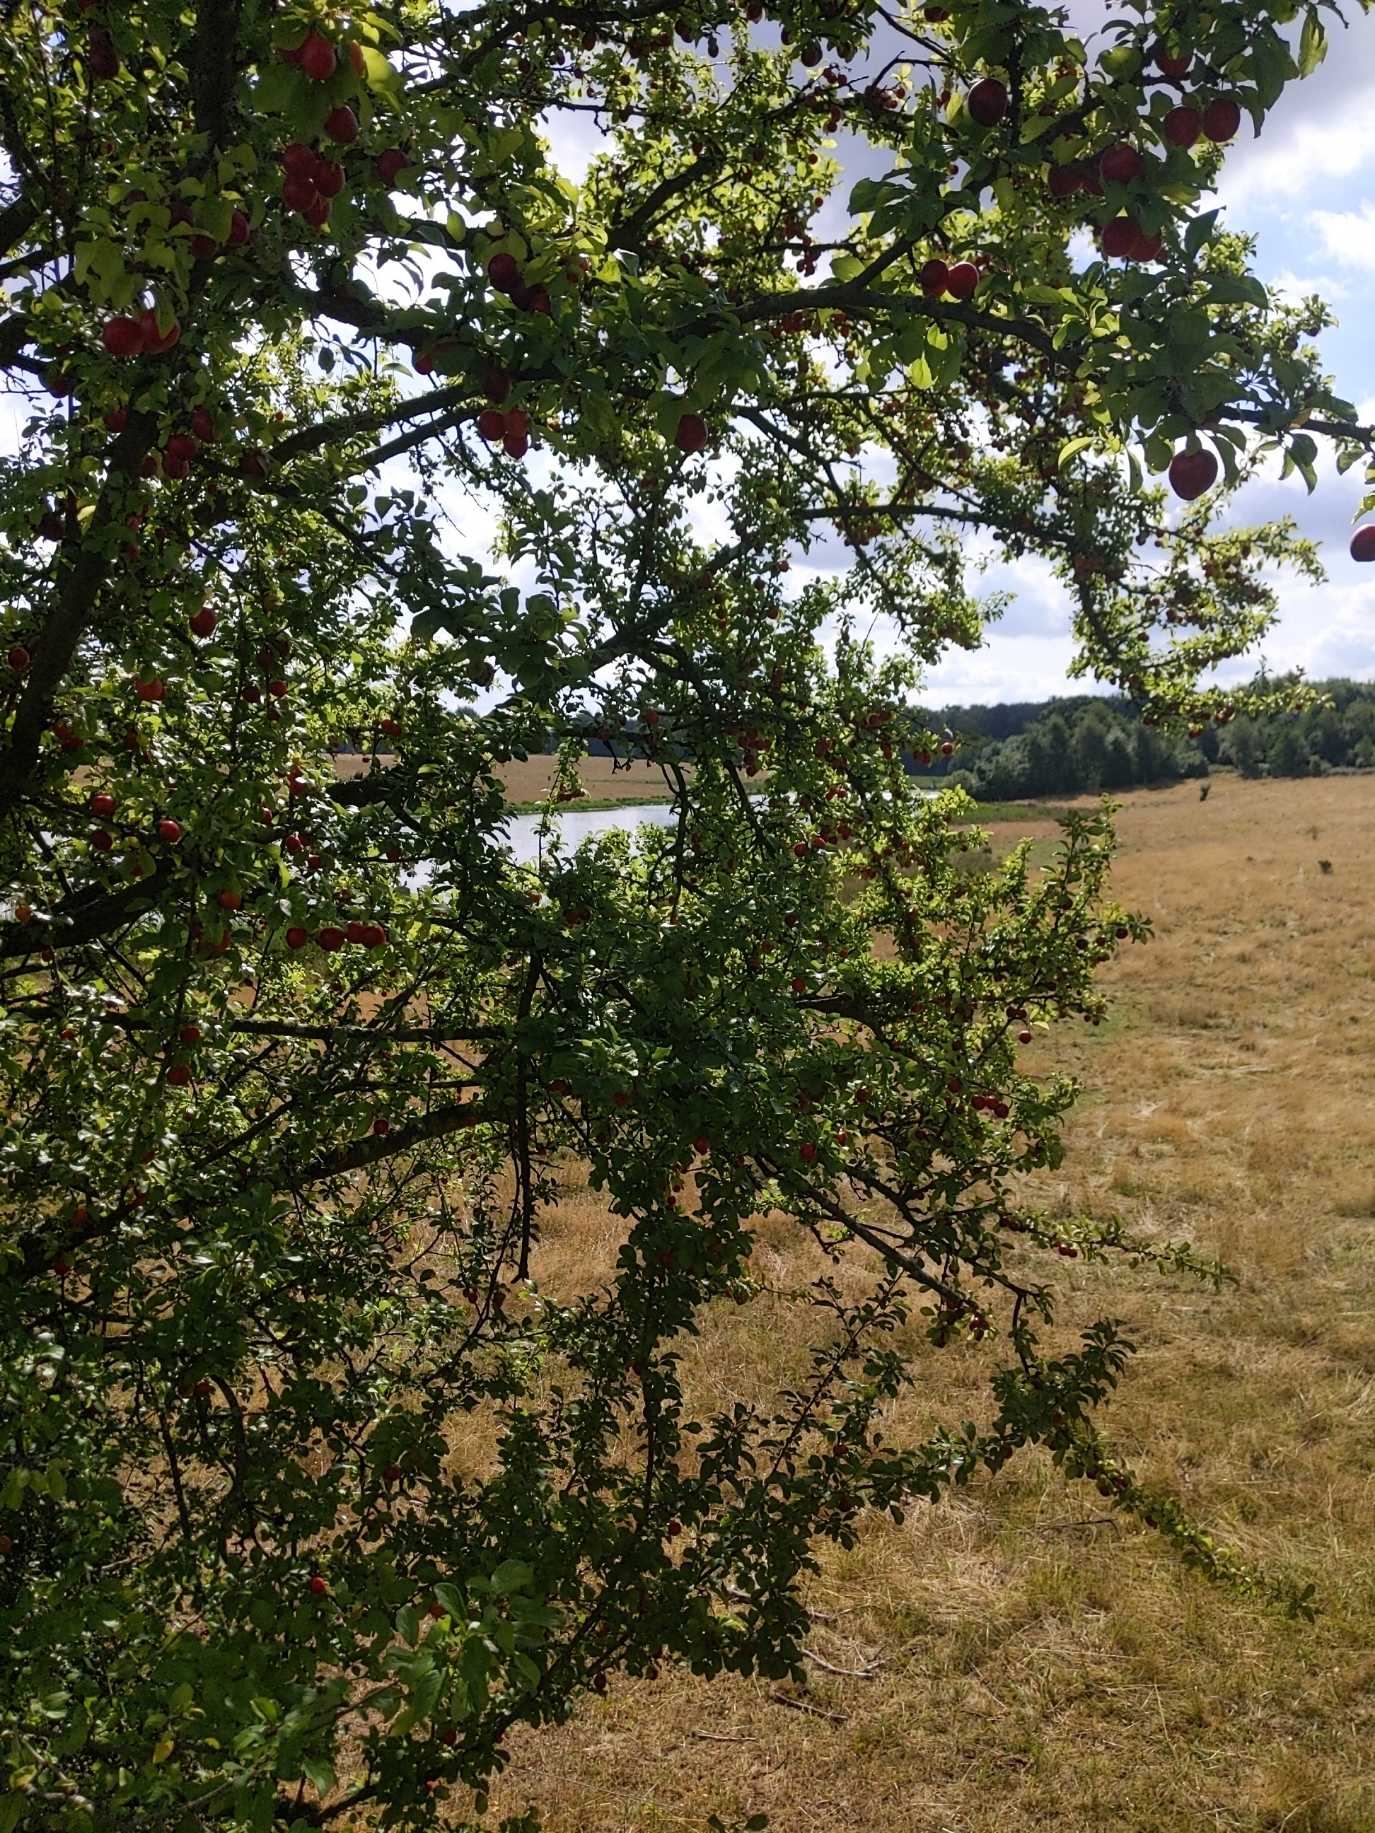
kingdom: Plantae
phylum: Tracheophyta
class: Magnoliopsida
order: Rosales
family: Rosaceae
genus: Prunus
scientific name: Prunus cerasifera
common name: Mirabel
